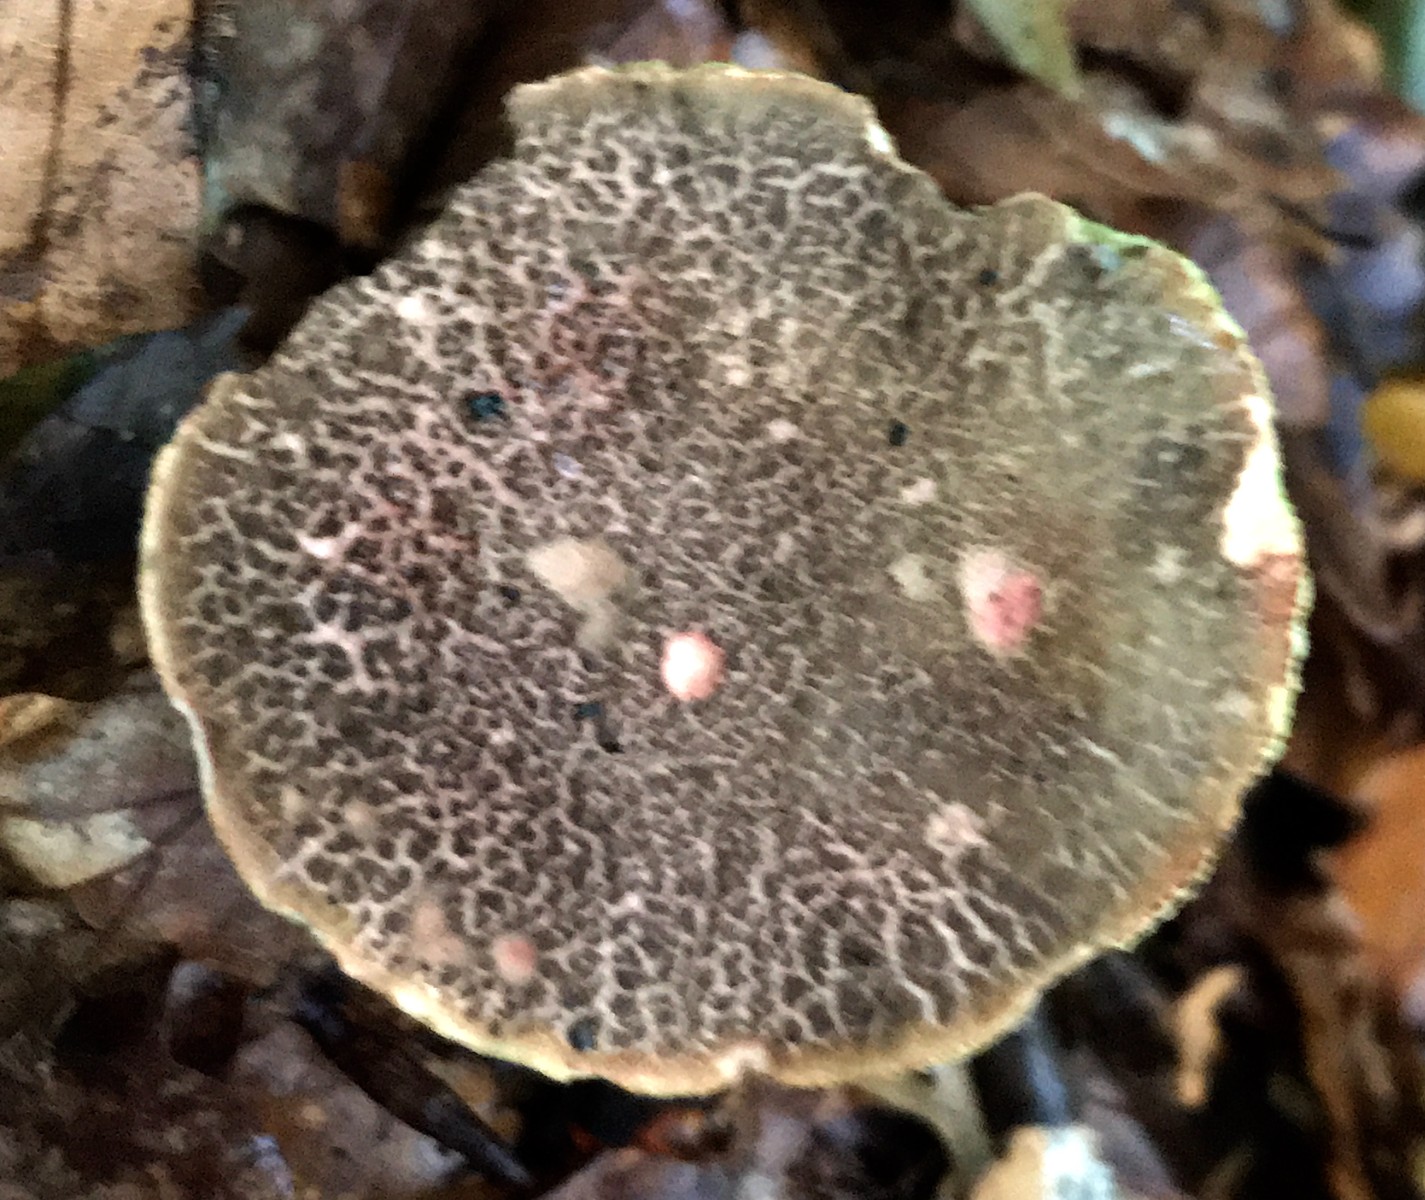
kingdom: Fungi
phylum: Basidiomycota
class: Agaricomycetes
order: Boletales
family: Boletaceae
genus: Xerocomellus
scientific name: Xerocomellus chrysenteron
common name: rødsprukken rørhat
